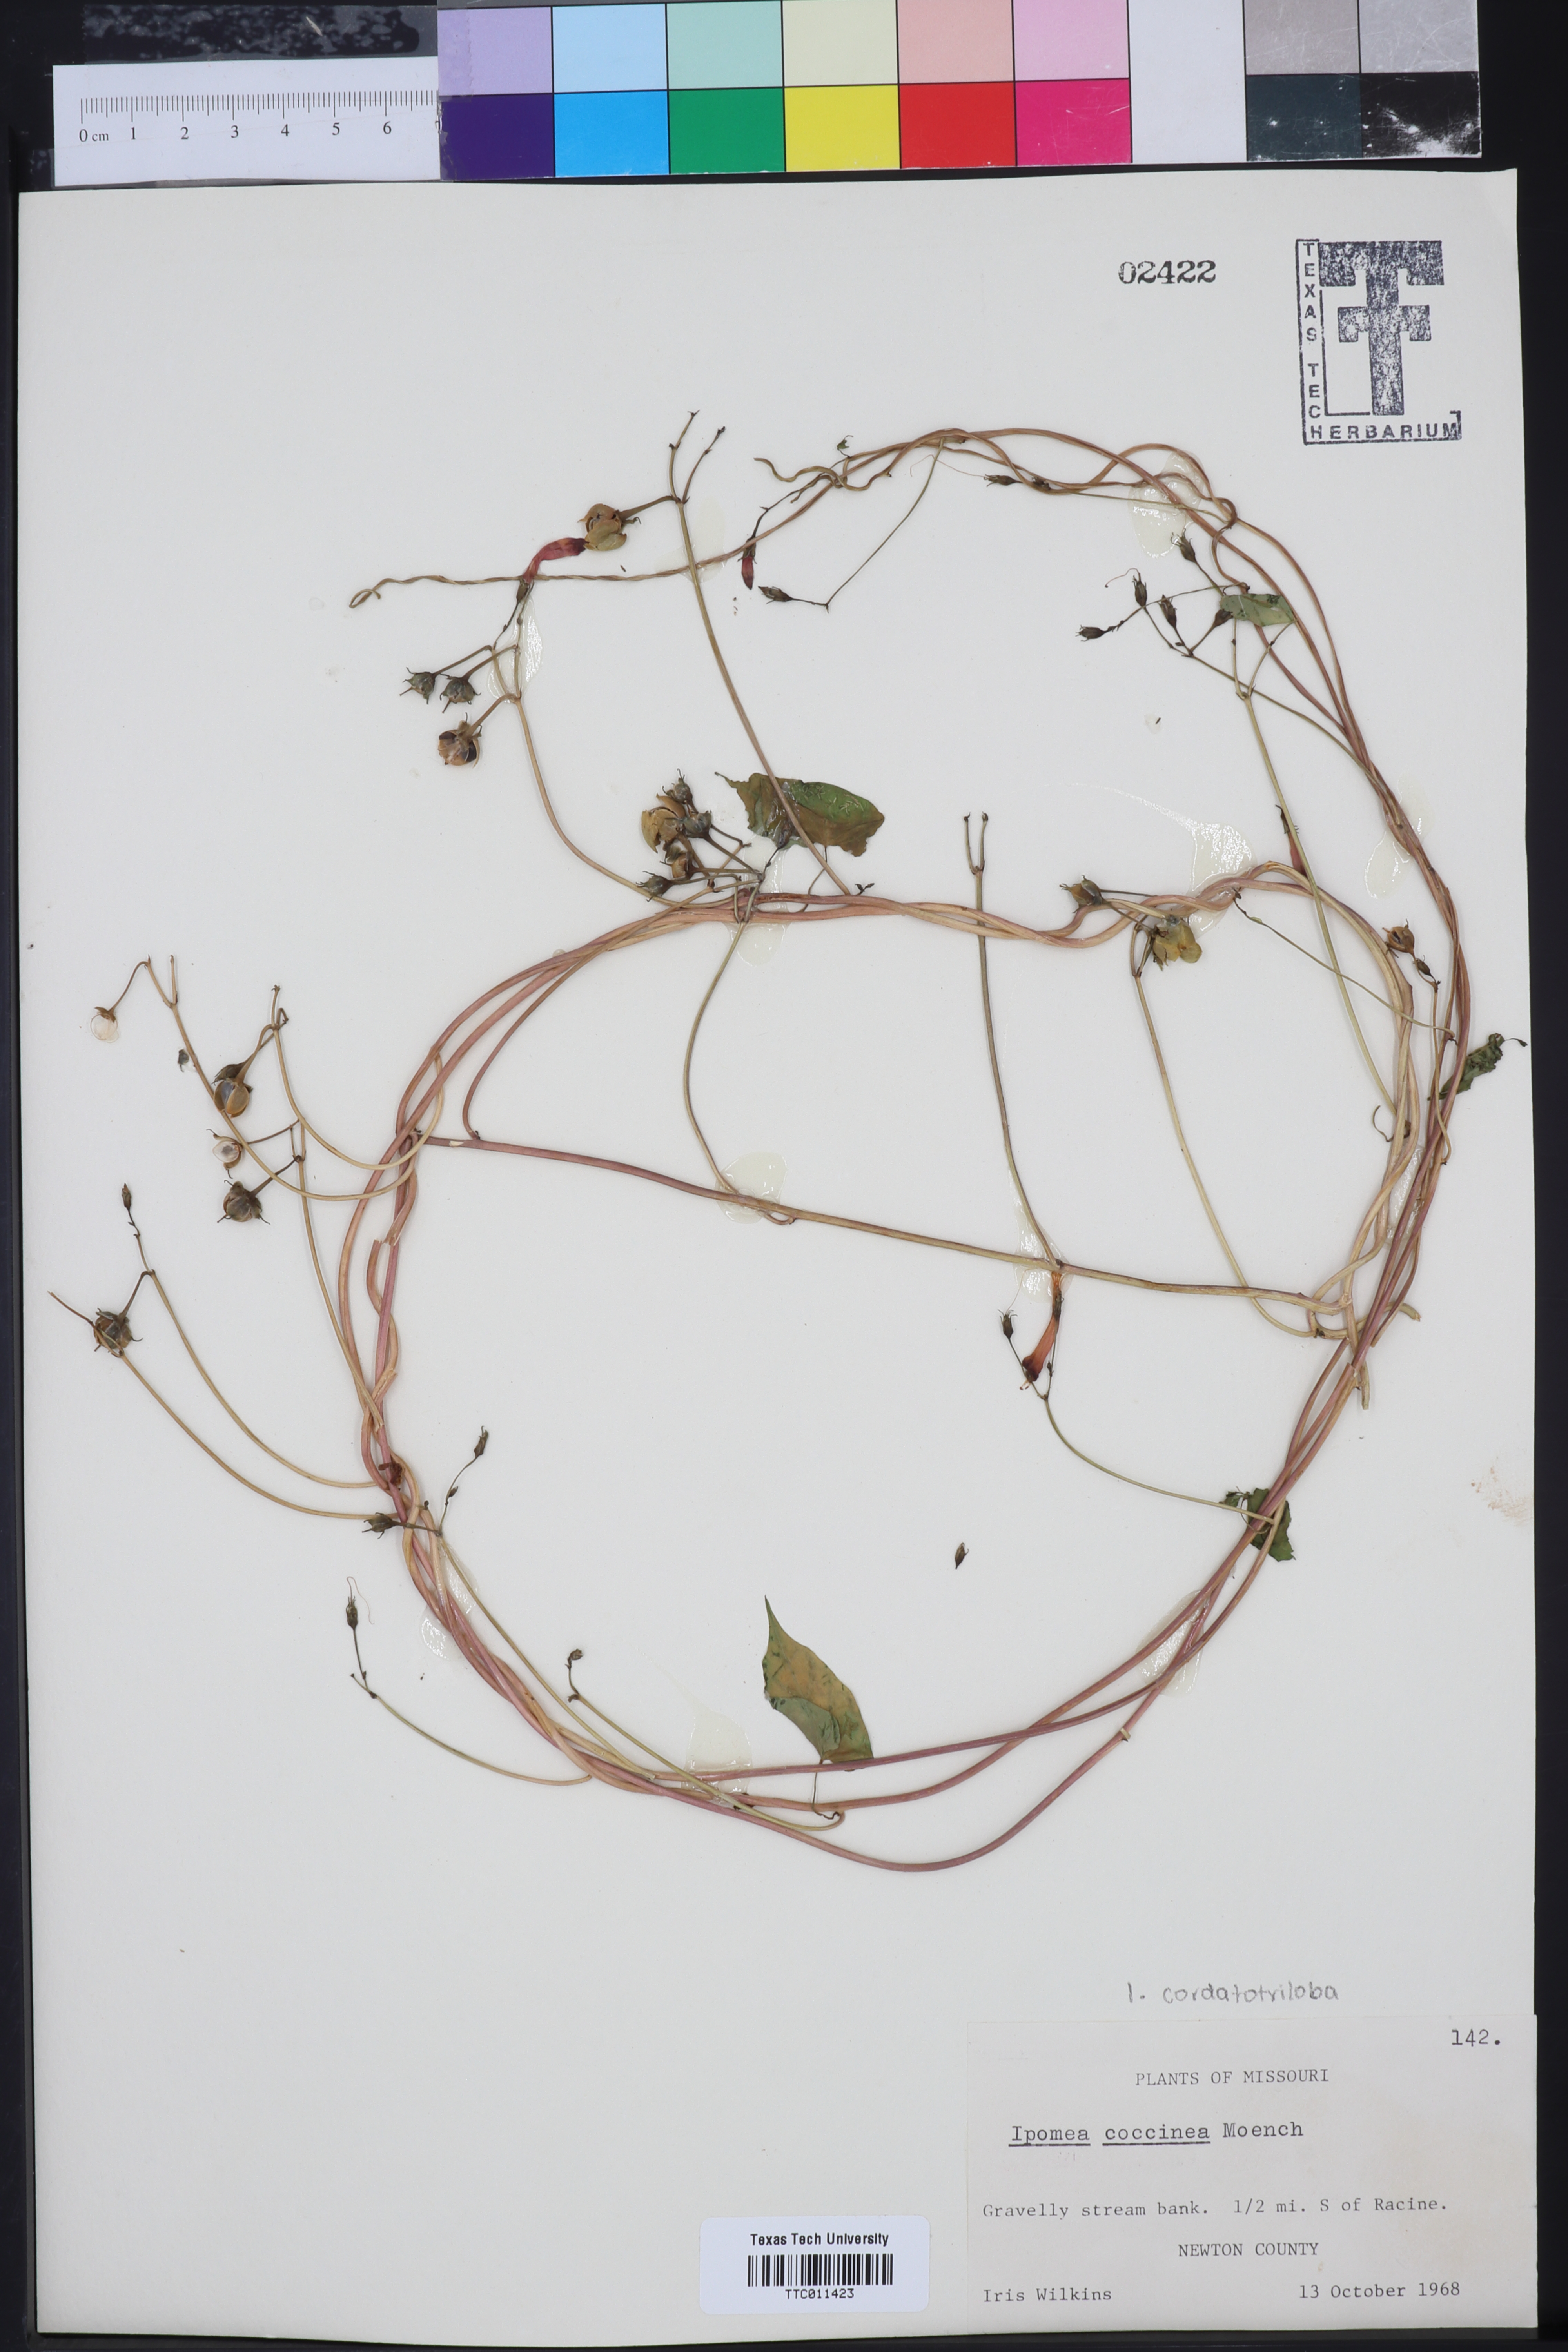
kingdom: Plantae
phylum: Tracheophyta
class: Magnoliopsida
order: Solanales
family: Convolvulaceae
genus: Ipomoea
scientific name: Ipomoea coccinea
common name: Red morning-glory
